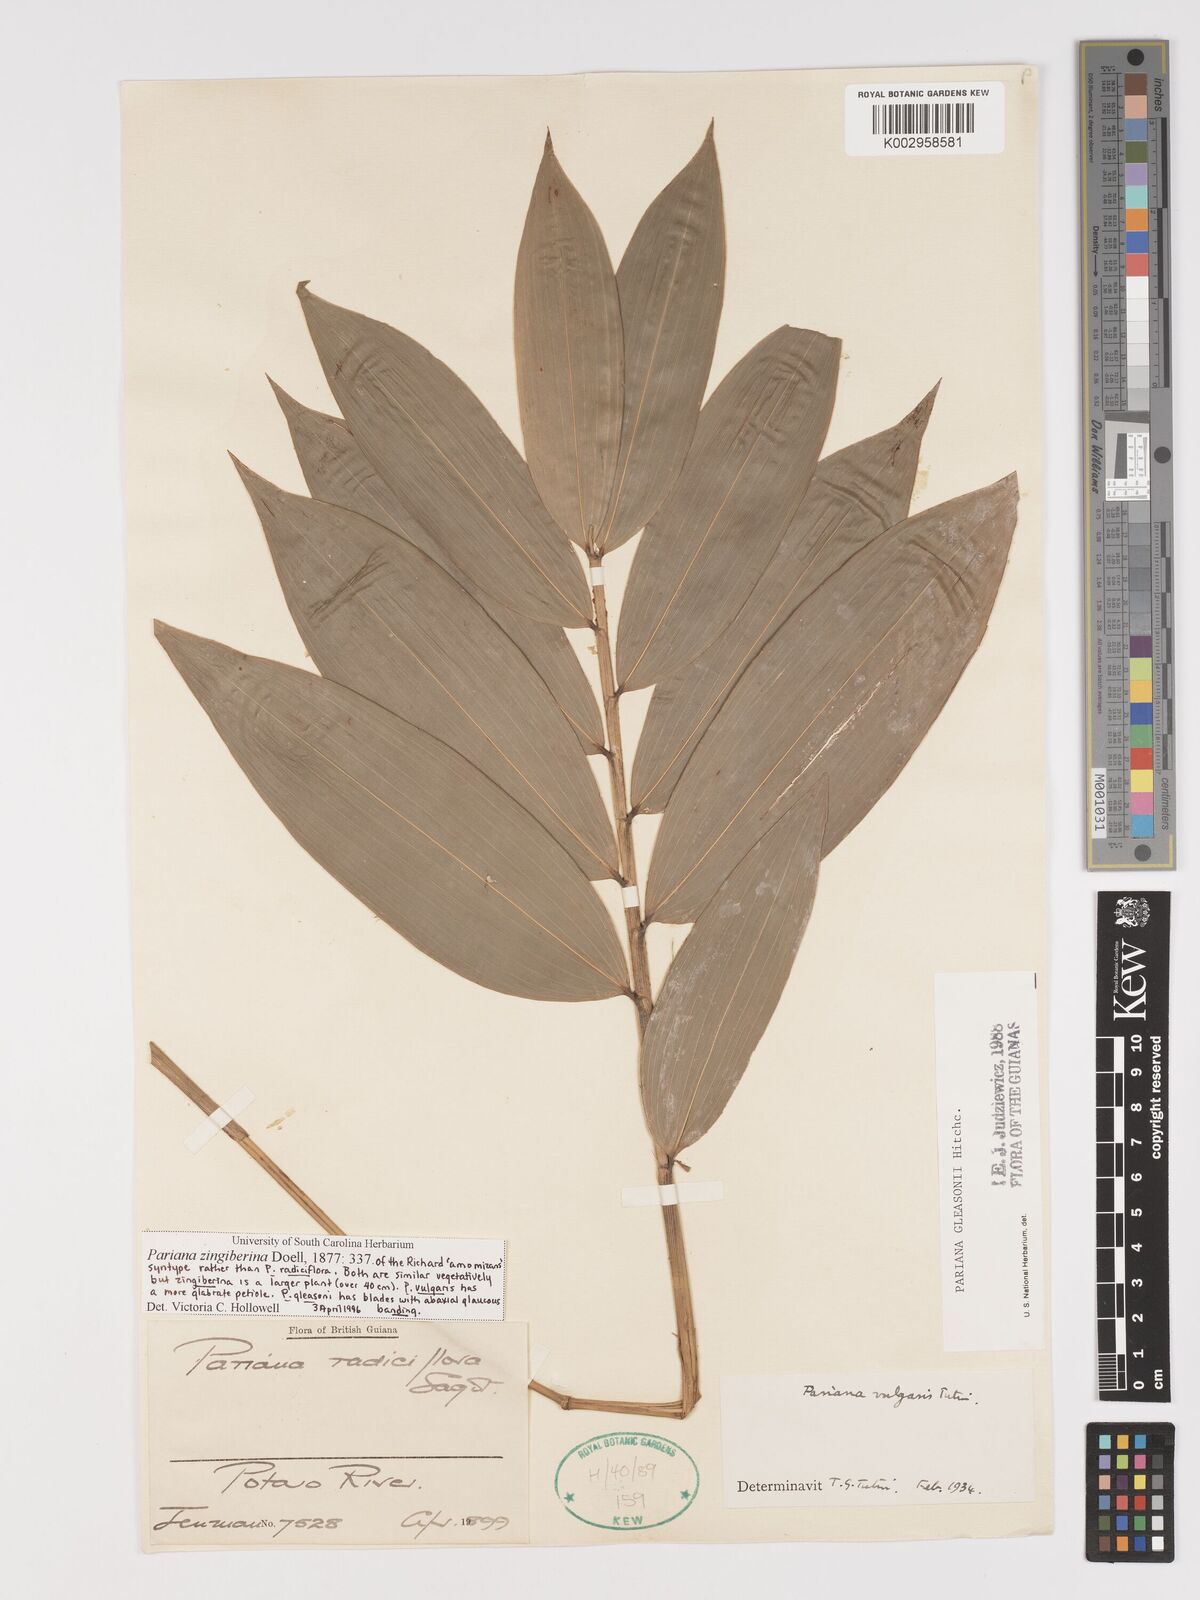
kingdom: Plantae
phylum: Tracheophyta
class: Liliopsida
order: Poales
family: Poaceae
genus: Pariana
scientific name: Pariana radiciflora
